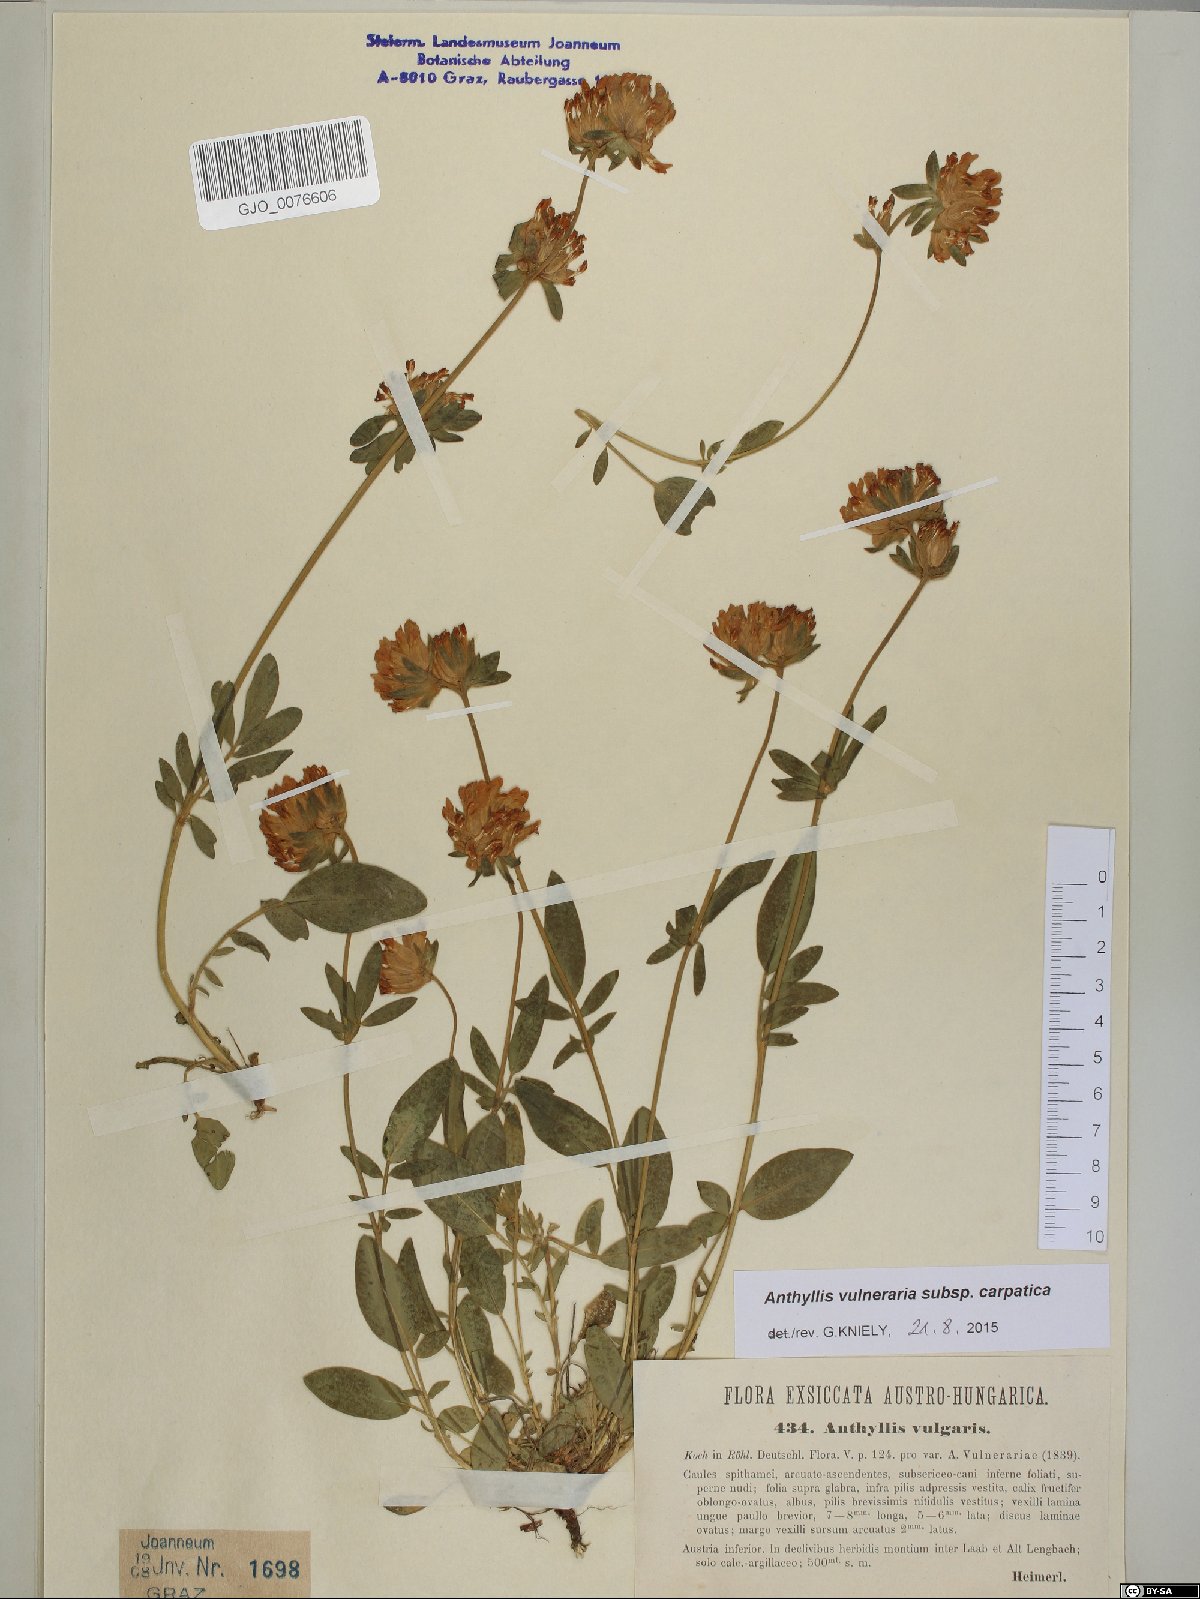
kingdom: Plantae
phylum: Tracheophyta
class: Magnoliopsida
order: Fabales
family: Fabaceae
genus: Anthyllis
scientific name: Anthyllis vulneraria
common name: Kidney vetch
